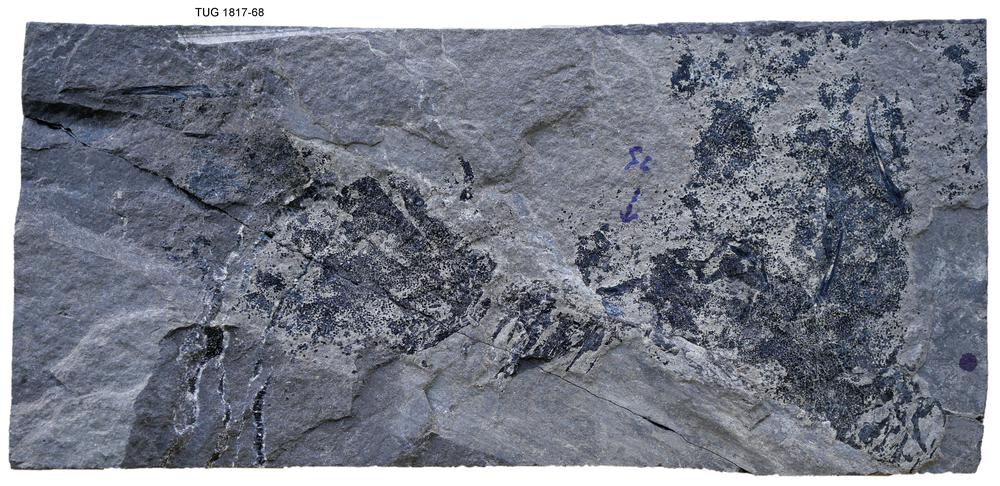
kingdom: Animalia
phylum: Chordata
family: Acanthodidae
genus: Cheiracanthus
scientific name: Cheiracanthus murchisoni
